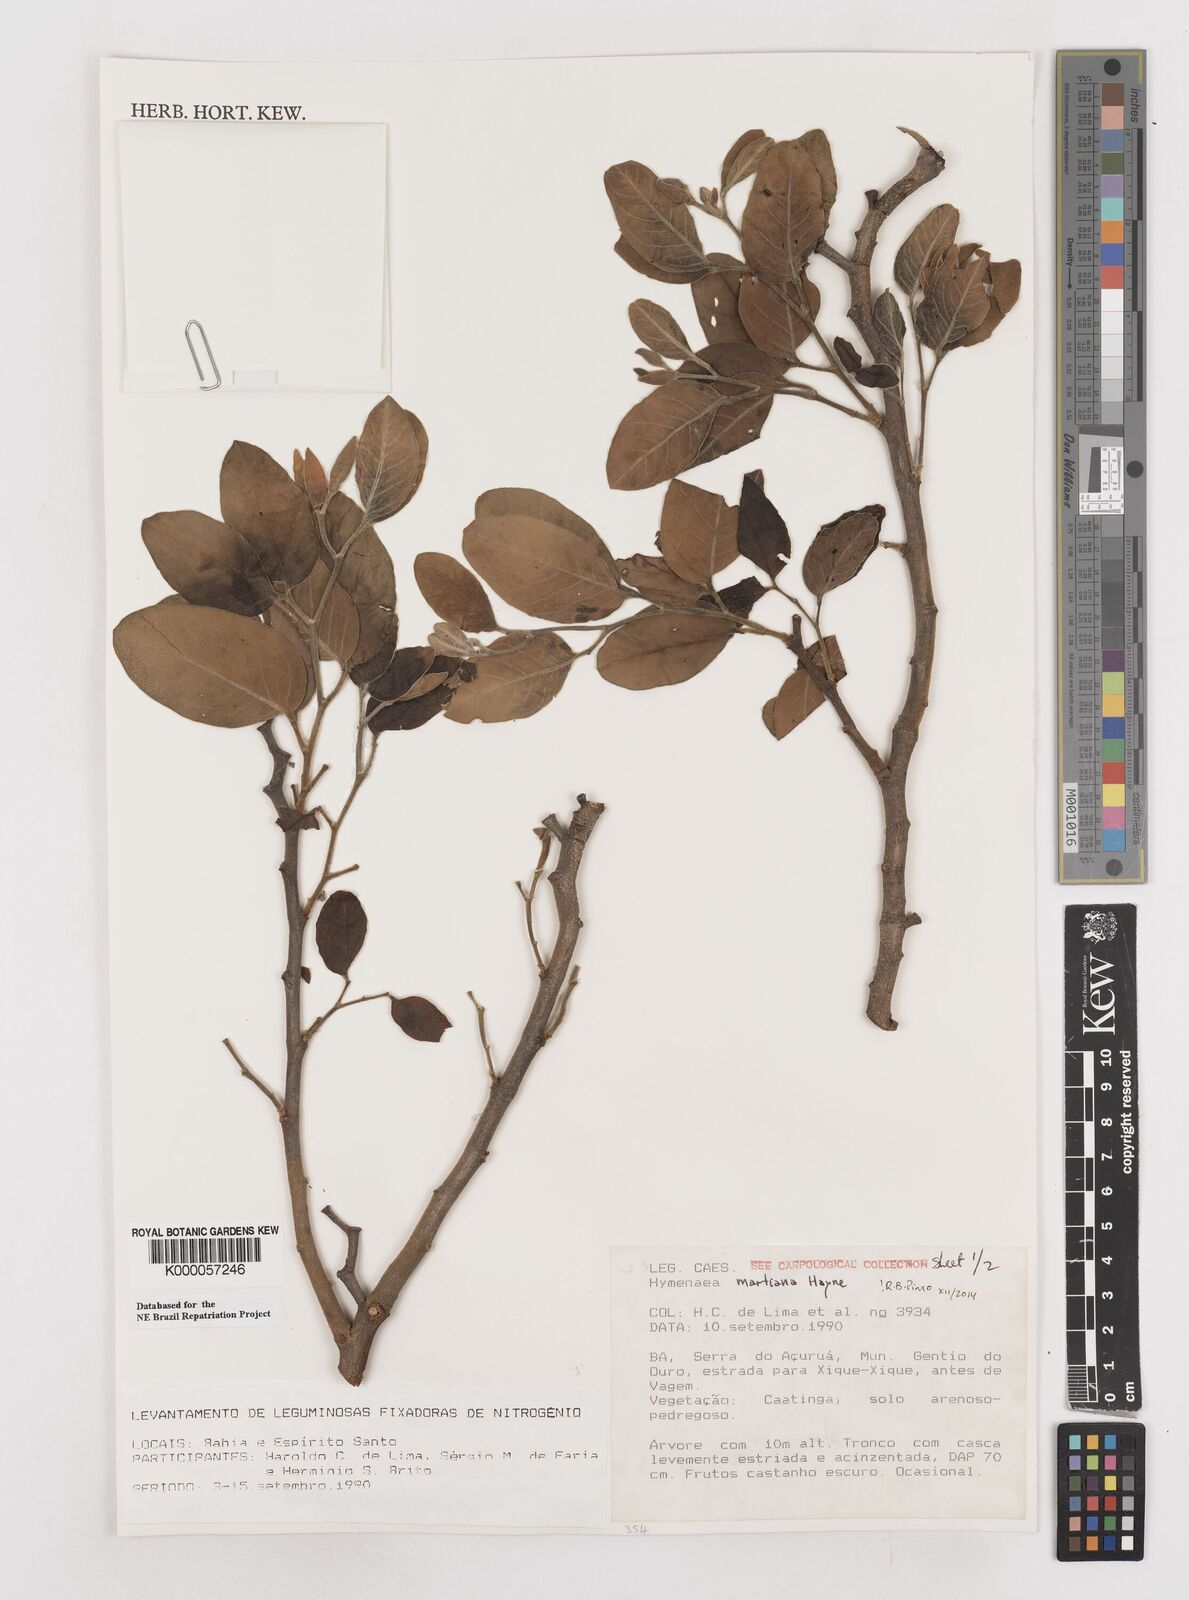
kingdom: Plantae
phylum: Tracheophyta
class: Magnoliopsida
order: Fabales
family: Fabaceae
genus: Hymenaea
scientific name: Hymenaea martiana
